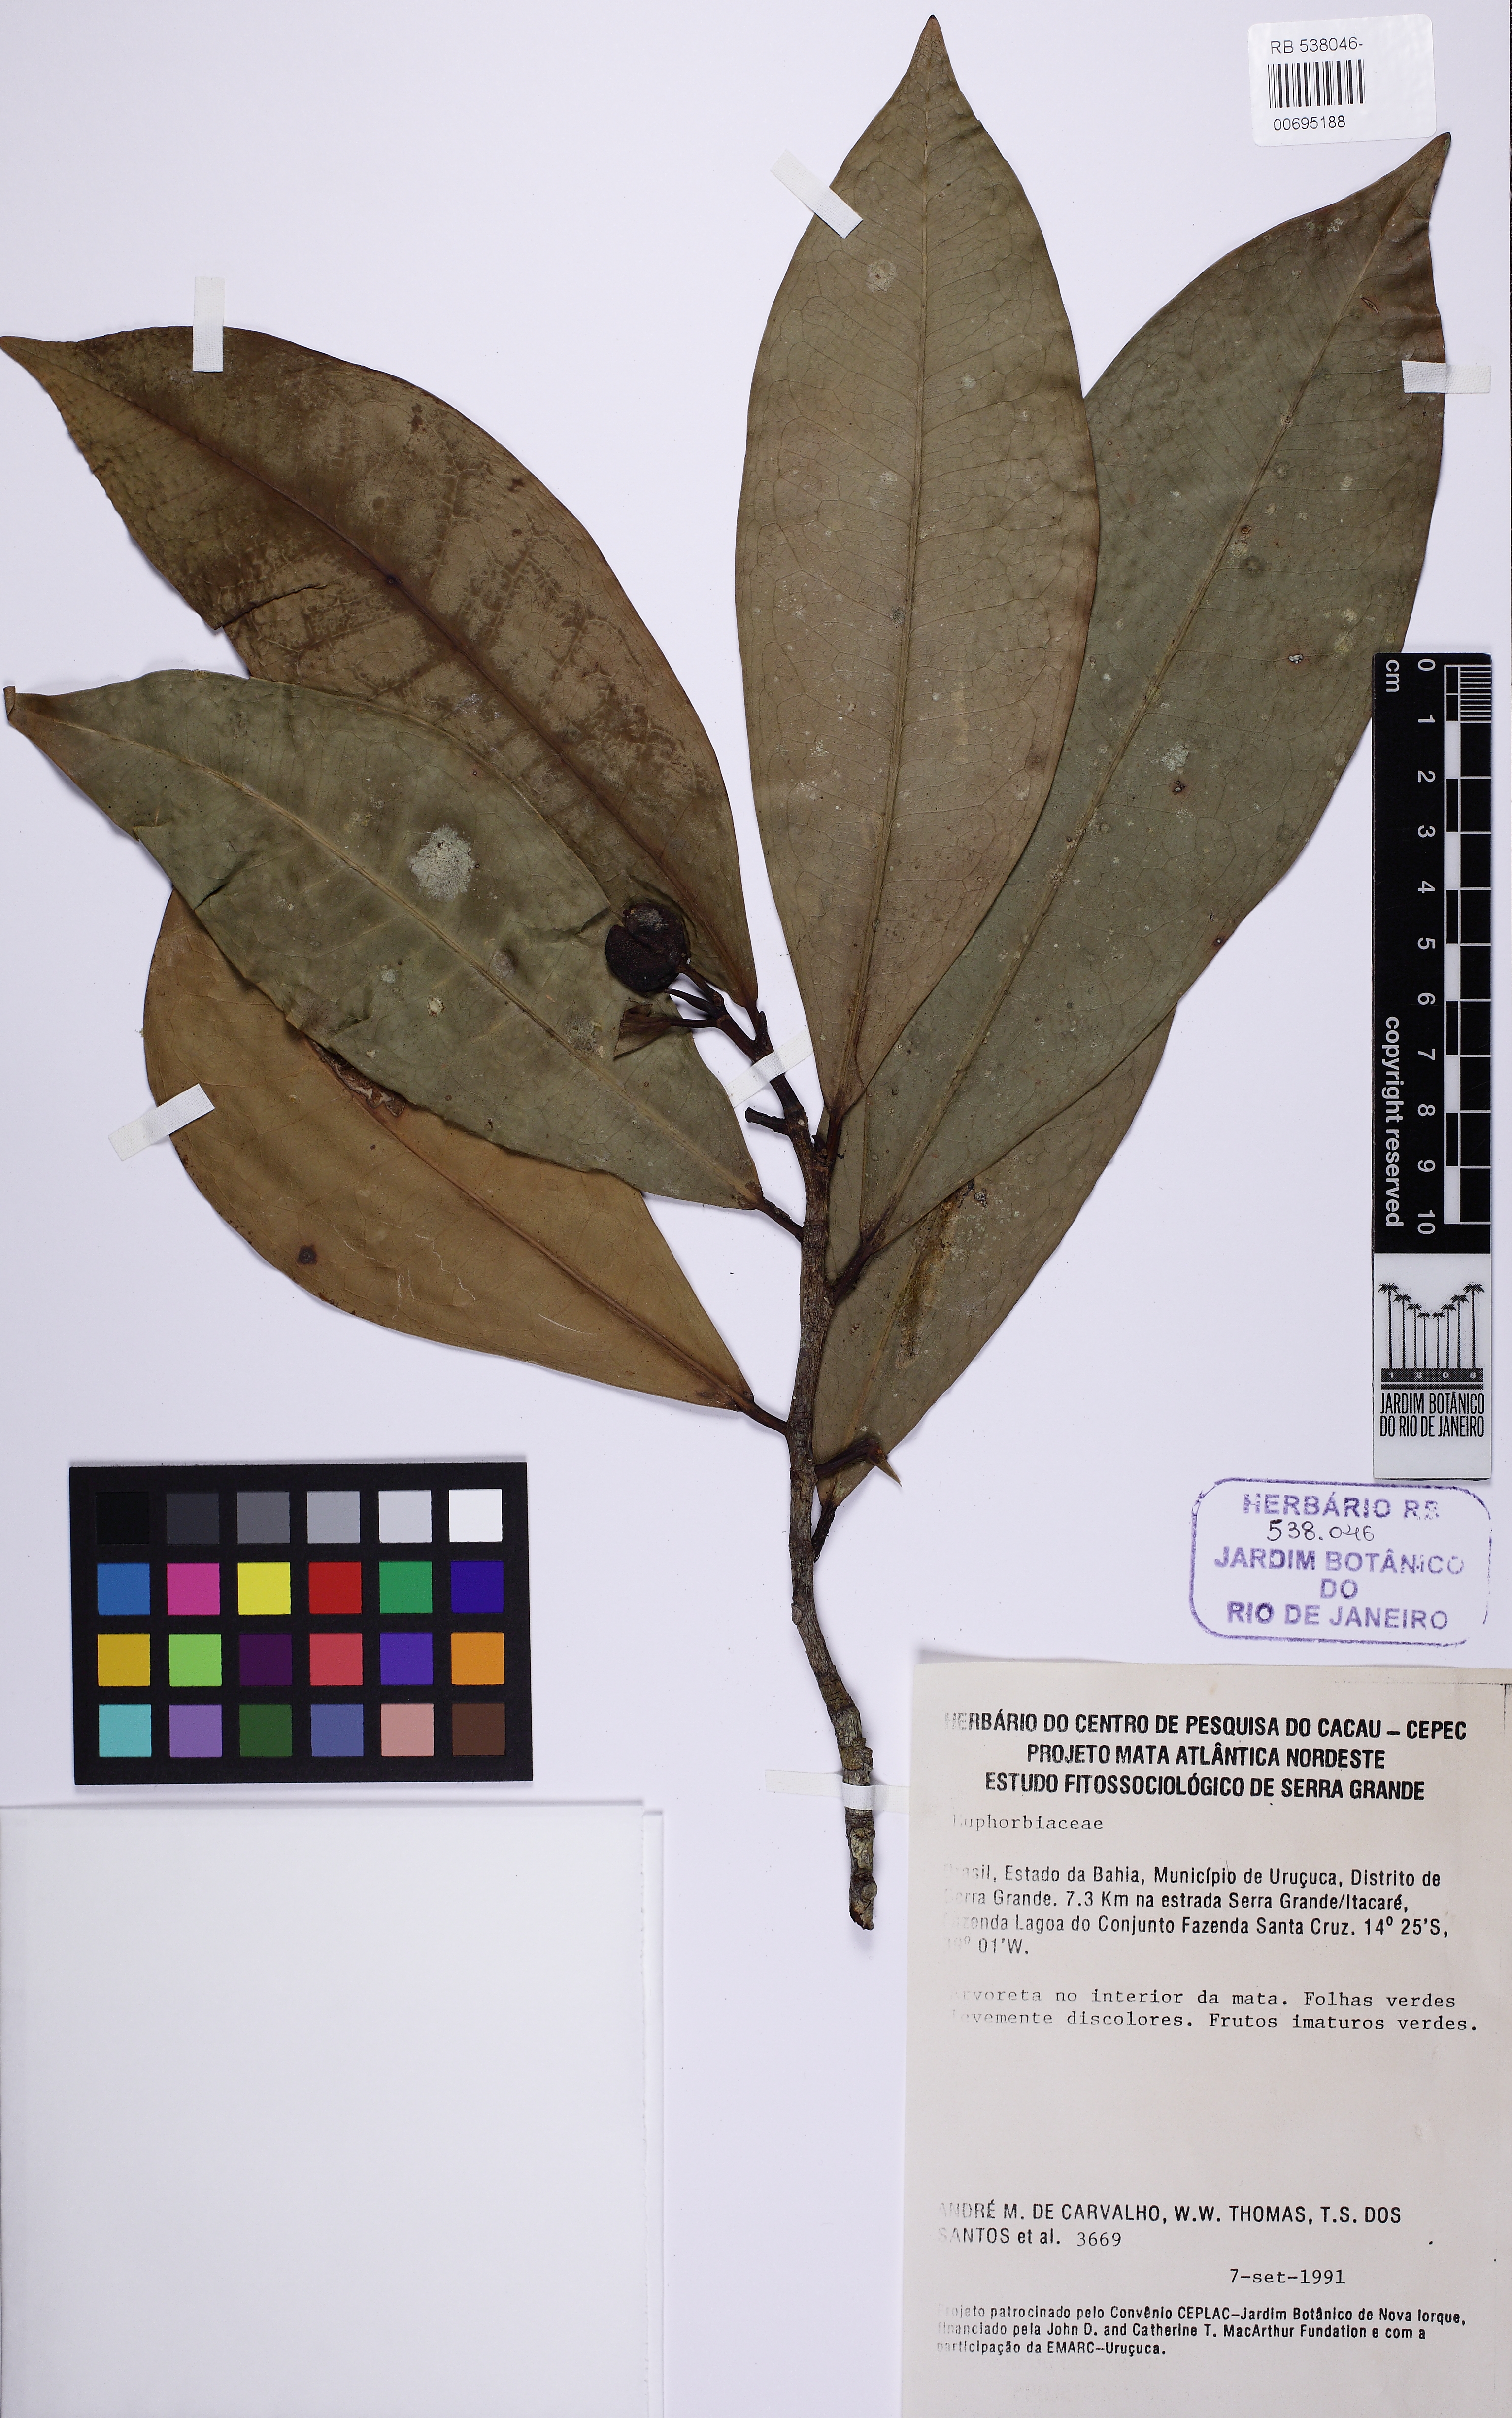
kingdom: Plantae
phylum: Tracheophyta
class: Magnoliopsida
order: Malpighiales
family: Euphorbiaceae
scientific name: Euphorbiaceae
